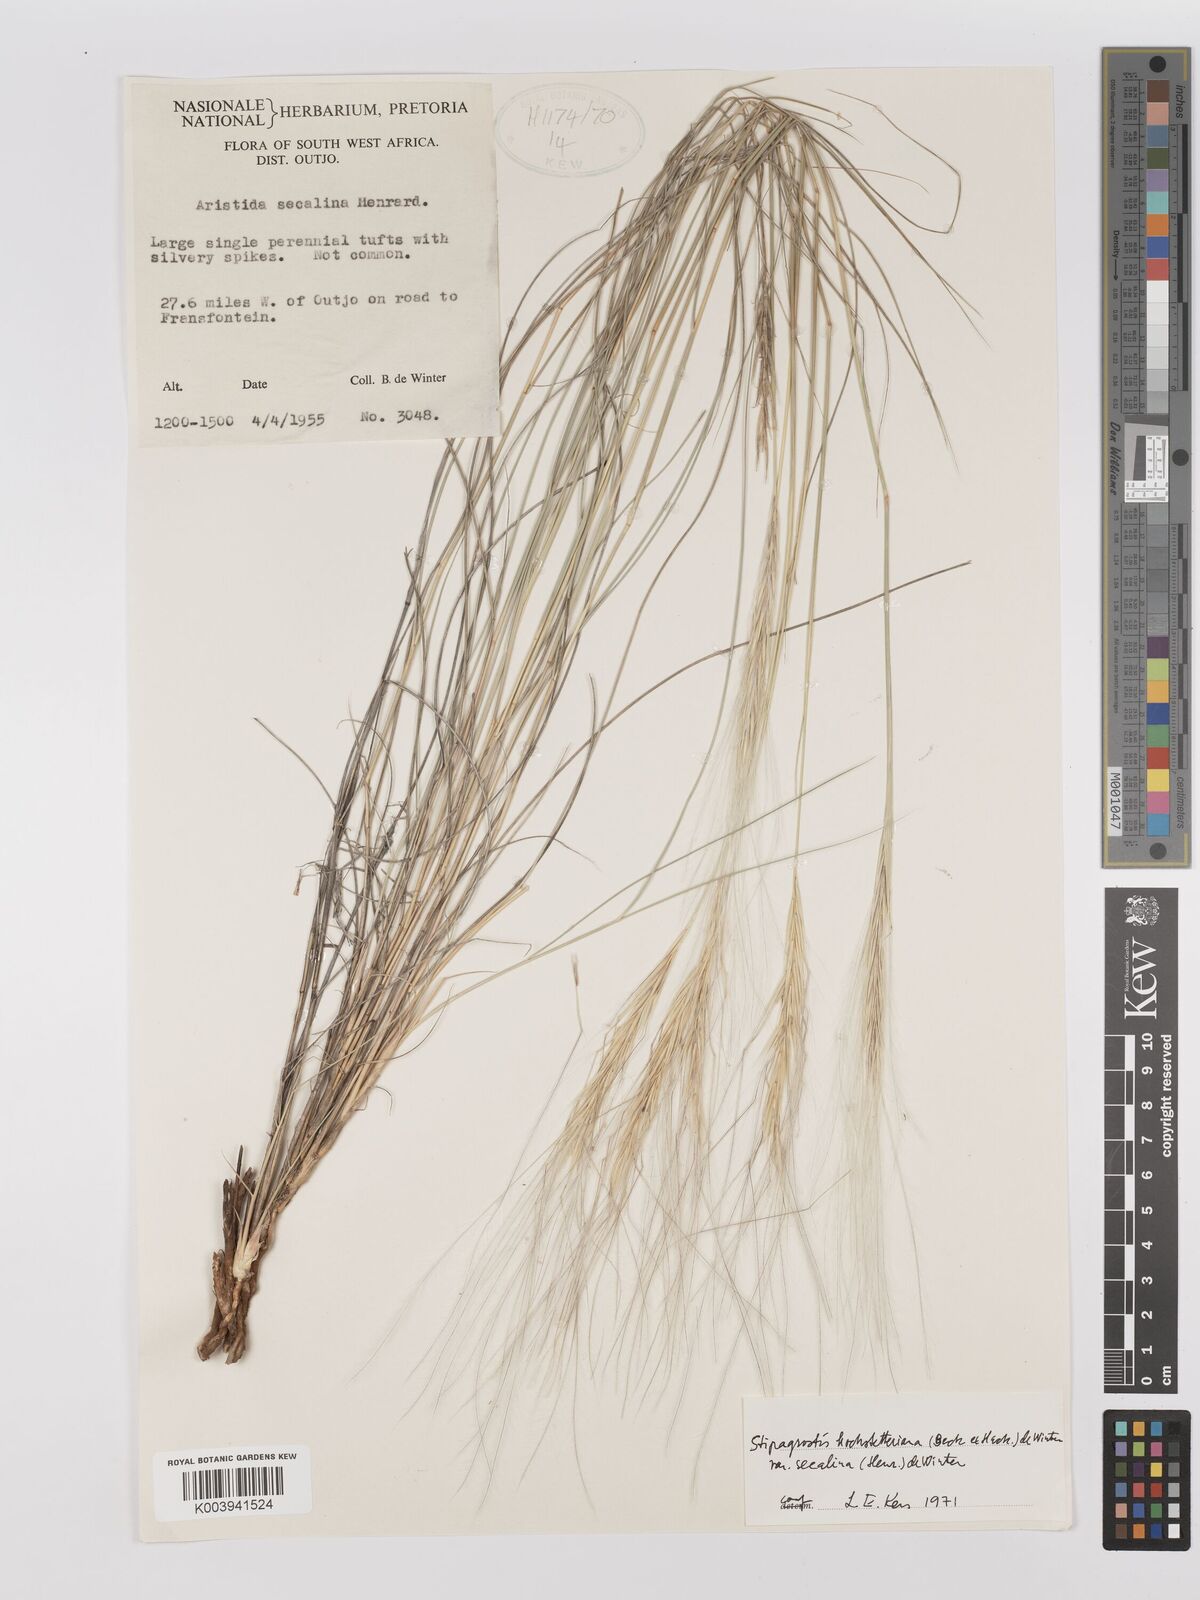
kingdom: Plantae
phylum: Tracheophyta
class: Liliopsida
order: Poales
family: Poaceae
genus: Stipagrostis
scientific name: Stipagrostis hochstetteriana
